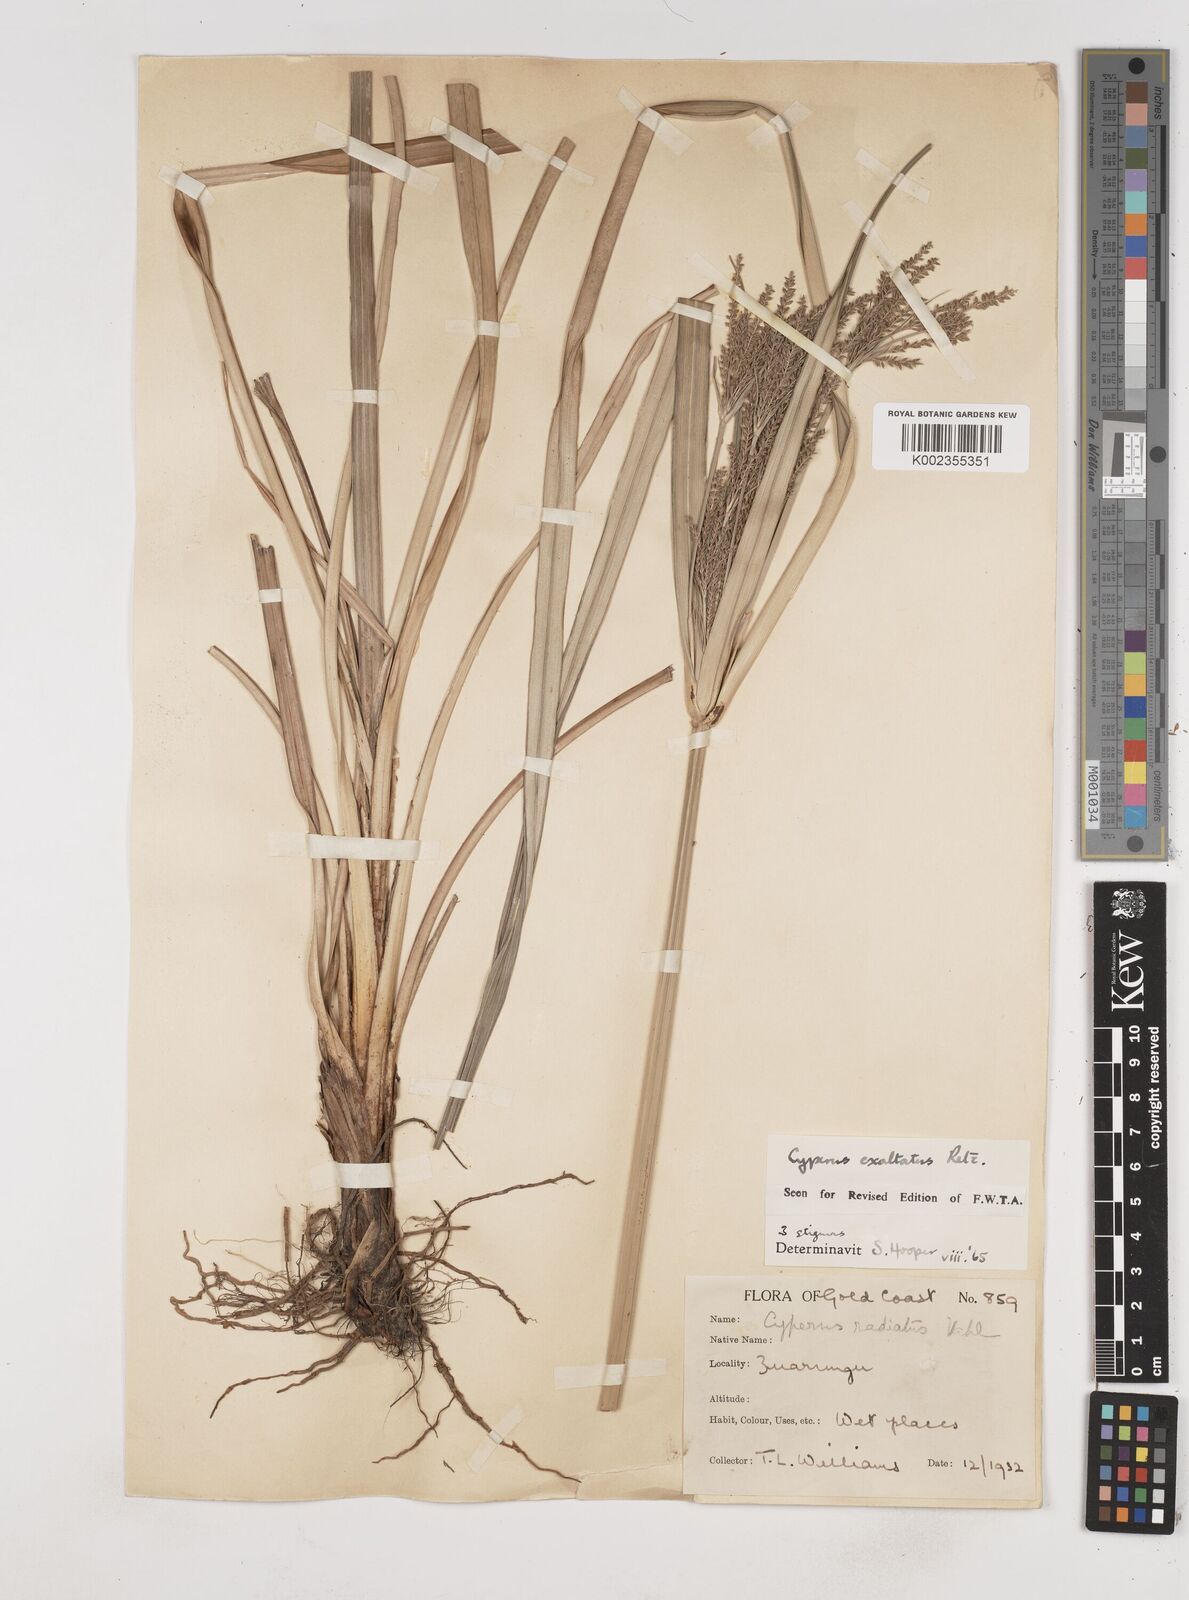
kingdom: Plantae
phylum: Tracheophyta
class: Liliopsida
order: Poales
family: Cyperaceae
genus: Cyperus
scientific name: Cyperus exaltatus
